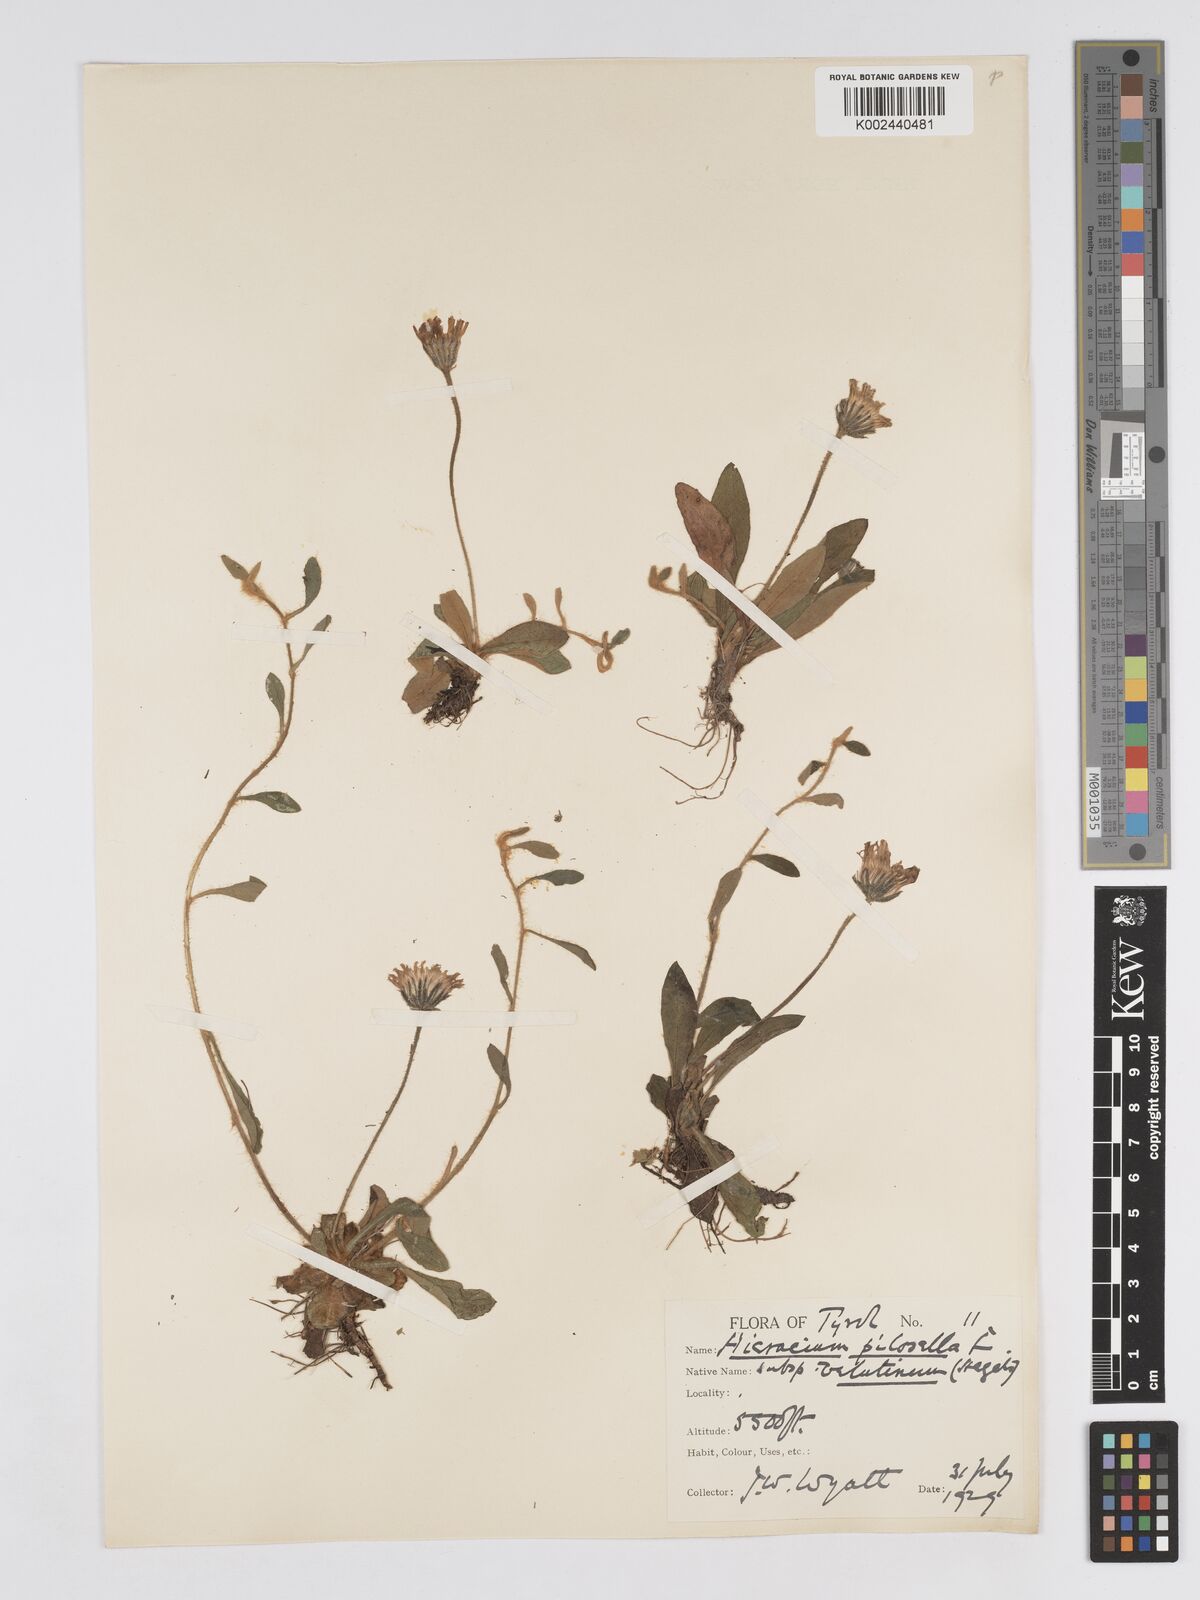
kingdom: Plantae
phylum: Tracheophyta
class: Magnoliopsida
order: Asterales
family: Asteraceae
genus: Pilosella
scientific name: Pilosella velutina
